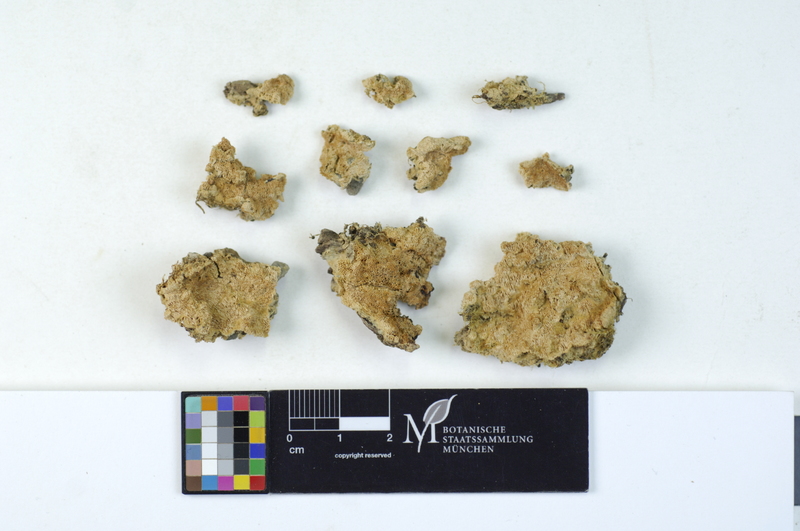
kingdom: Fungi
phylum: Basidiomycota
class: Agaricomycetes
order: Hymenochaetales
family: Oxyporaceae
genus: Oxyporus
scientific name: Oxyporus corticola
